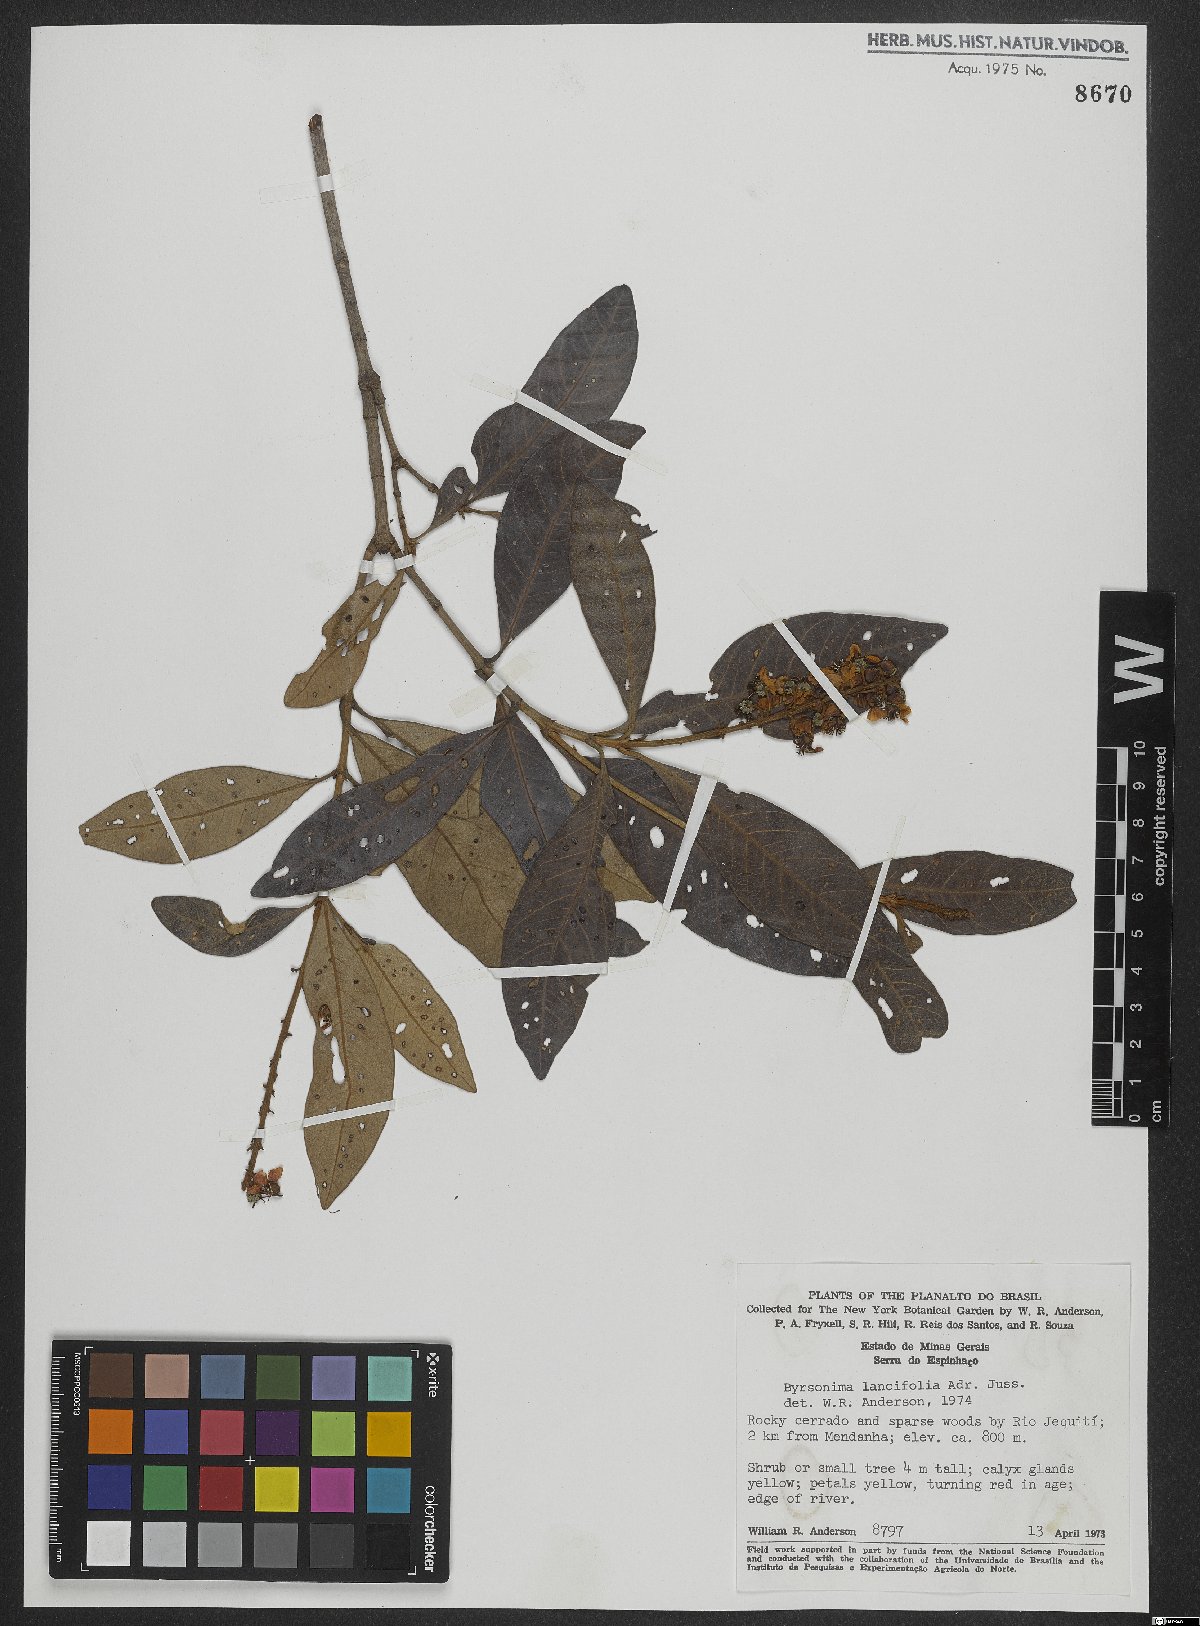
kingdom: Plantae
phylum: Tracheophyta
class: Magnoliopsida
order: Malpighiales
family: Malpighiaceae
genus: Byrsonima
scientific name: Byrsonima lancifolia
